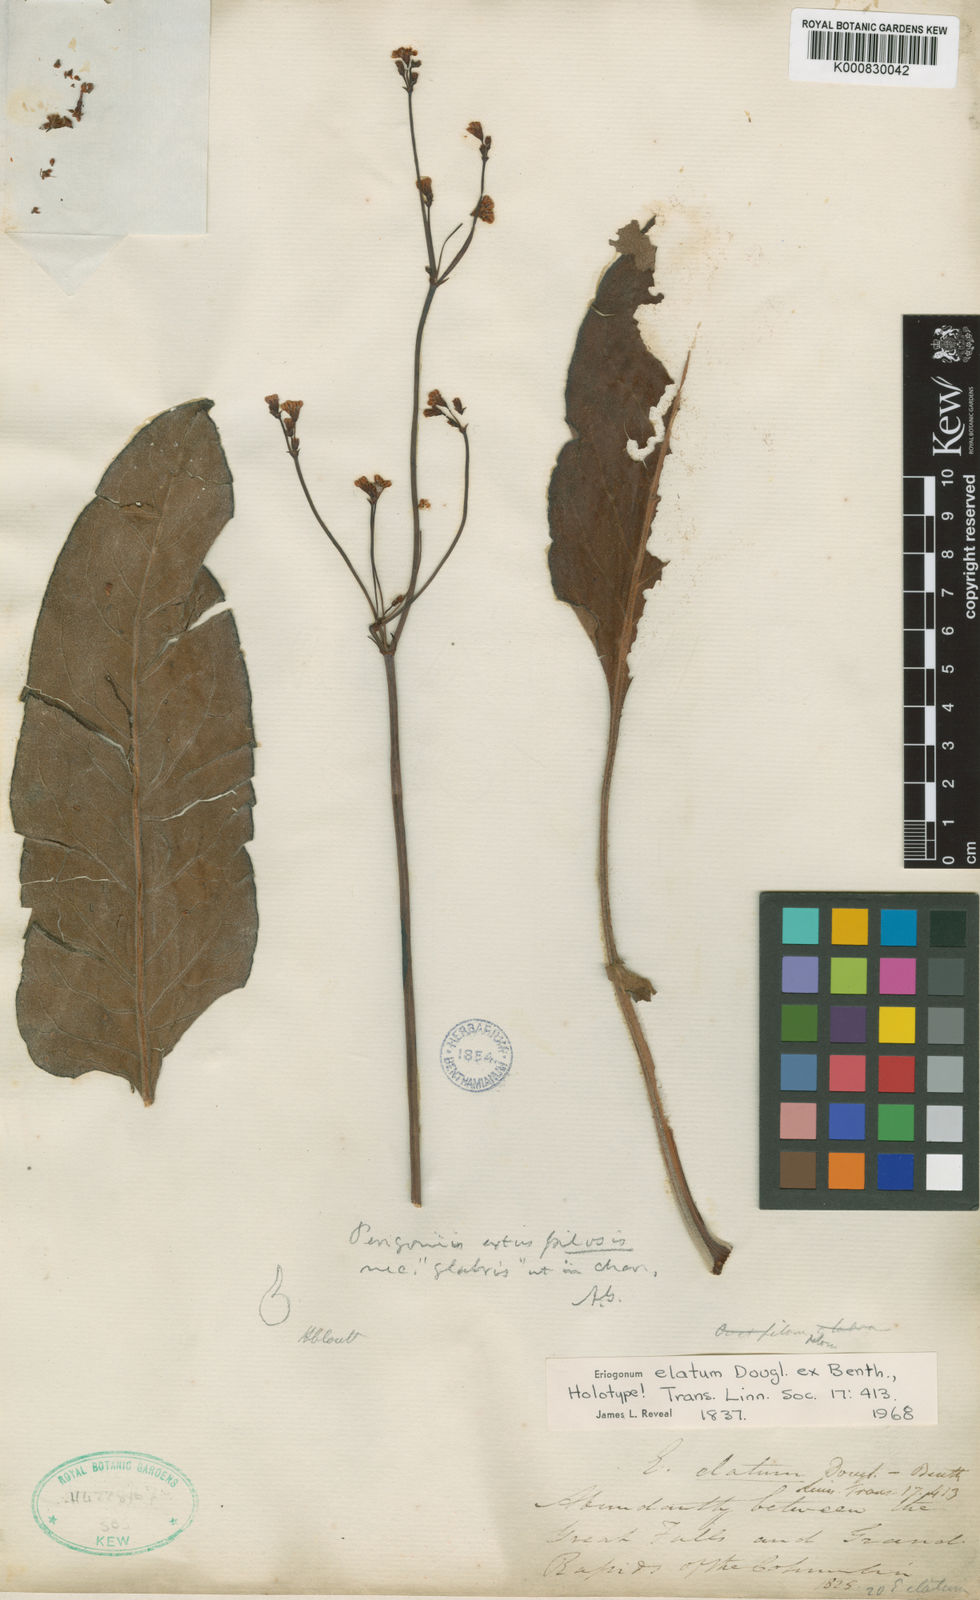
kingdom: Plantae
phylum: Tracheophyta
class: Magnoliopsida
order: Caryophyllales
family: Polygonaceae
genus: Eriogonum
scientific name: Eriogonum elatum
